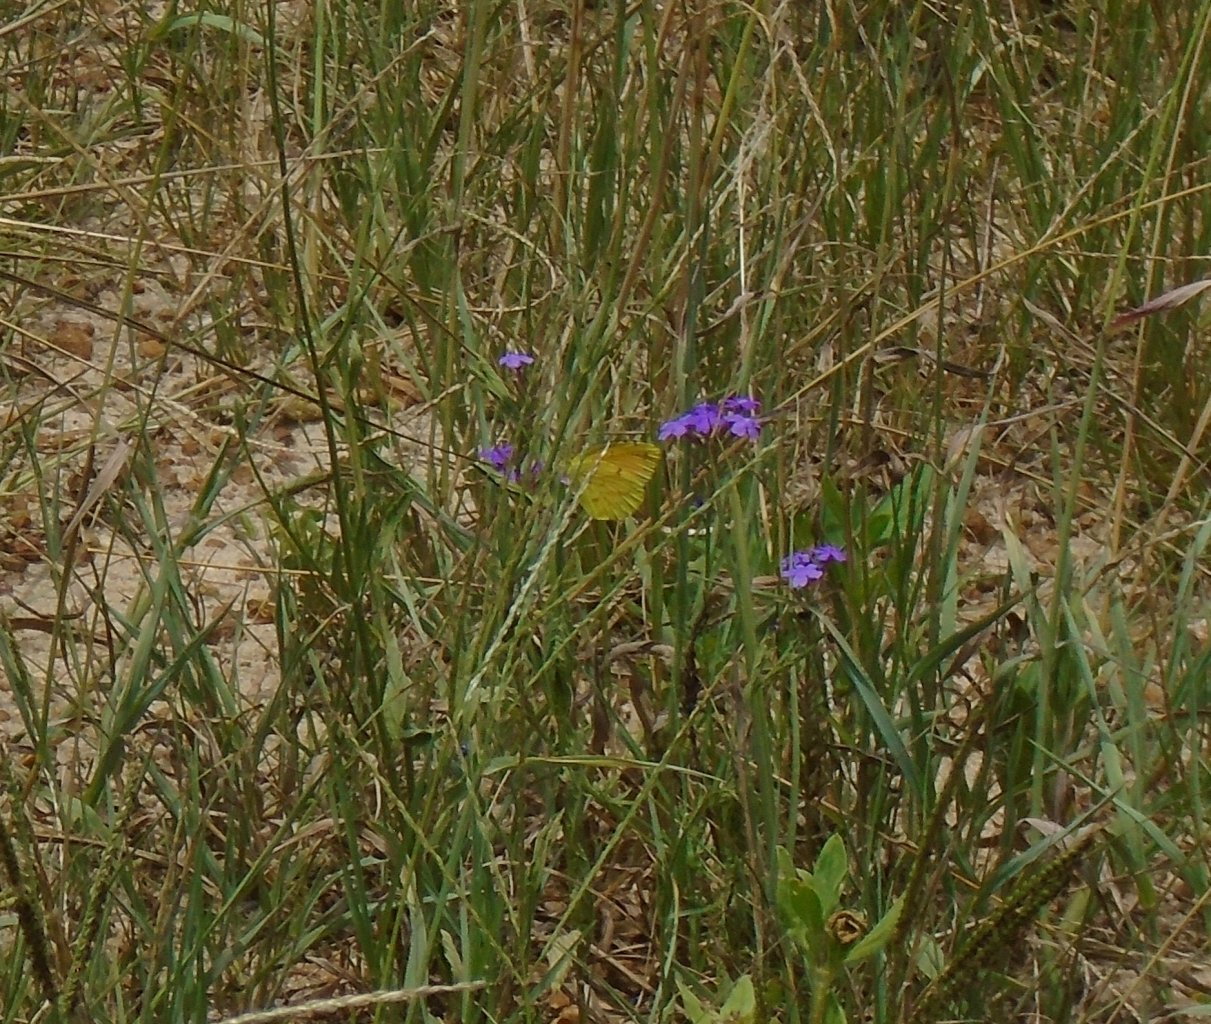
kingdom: Animalia
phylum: Arthropoda
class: Insecta
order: Lepidoptera
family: Pieridae
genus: Abaeis
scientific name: Abaeis nicippe
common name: Sleepy Orange
